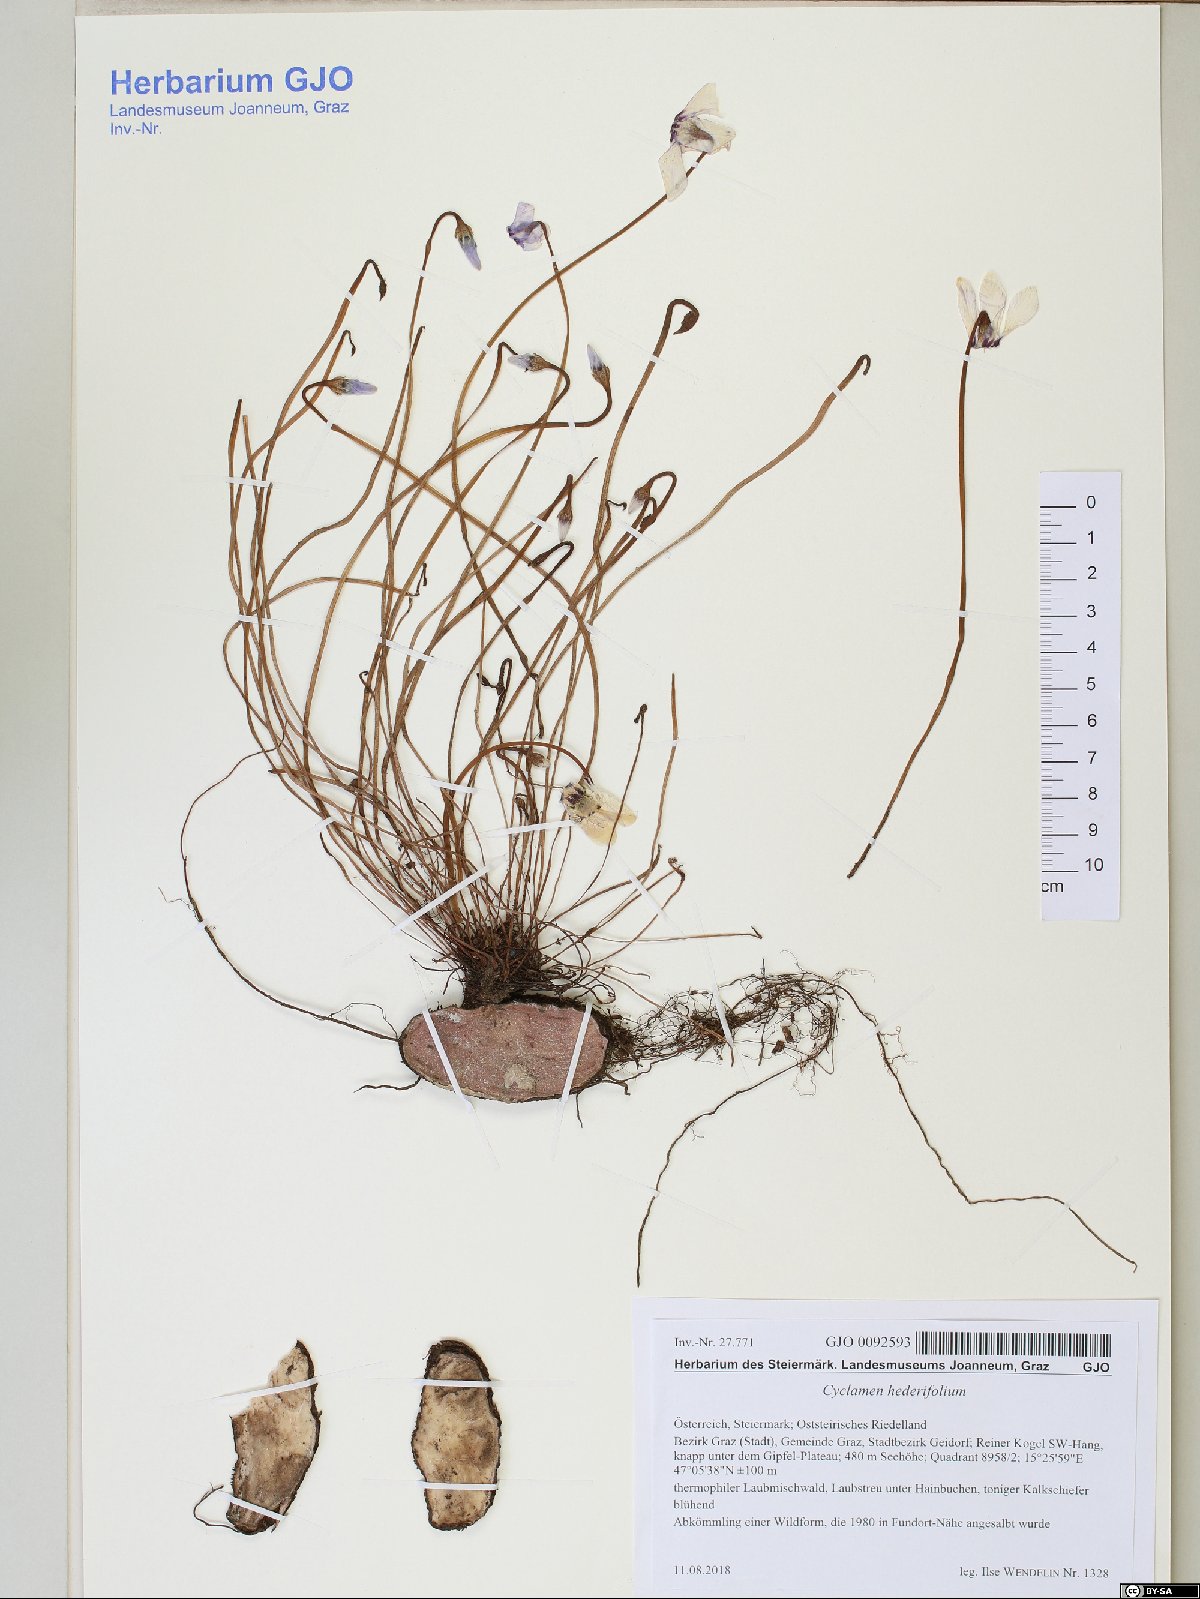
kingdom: Plantae
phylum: Tracheophyta
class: Magnoliopsida
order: Ericales
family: Primulaceae
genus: Cyclamen
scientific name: Cyclamen hederifolium
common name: Sowbread
